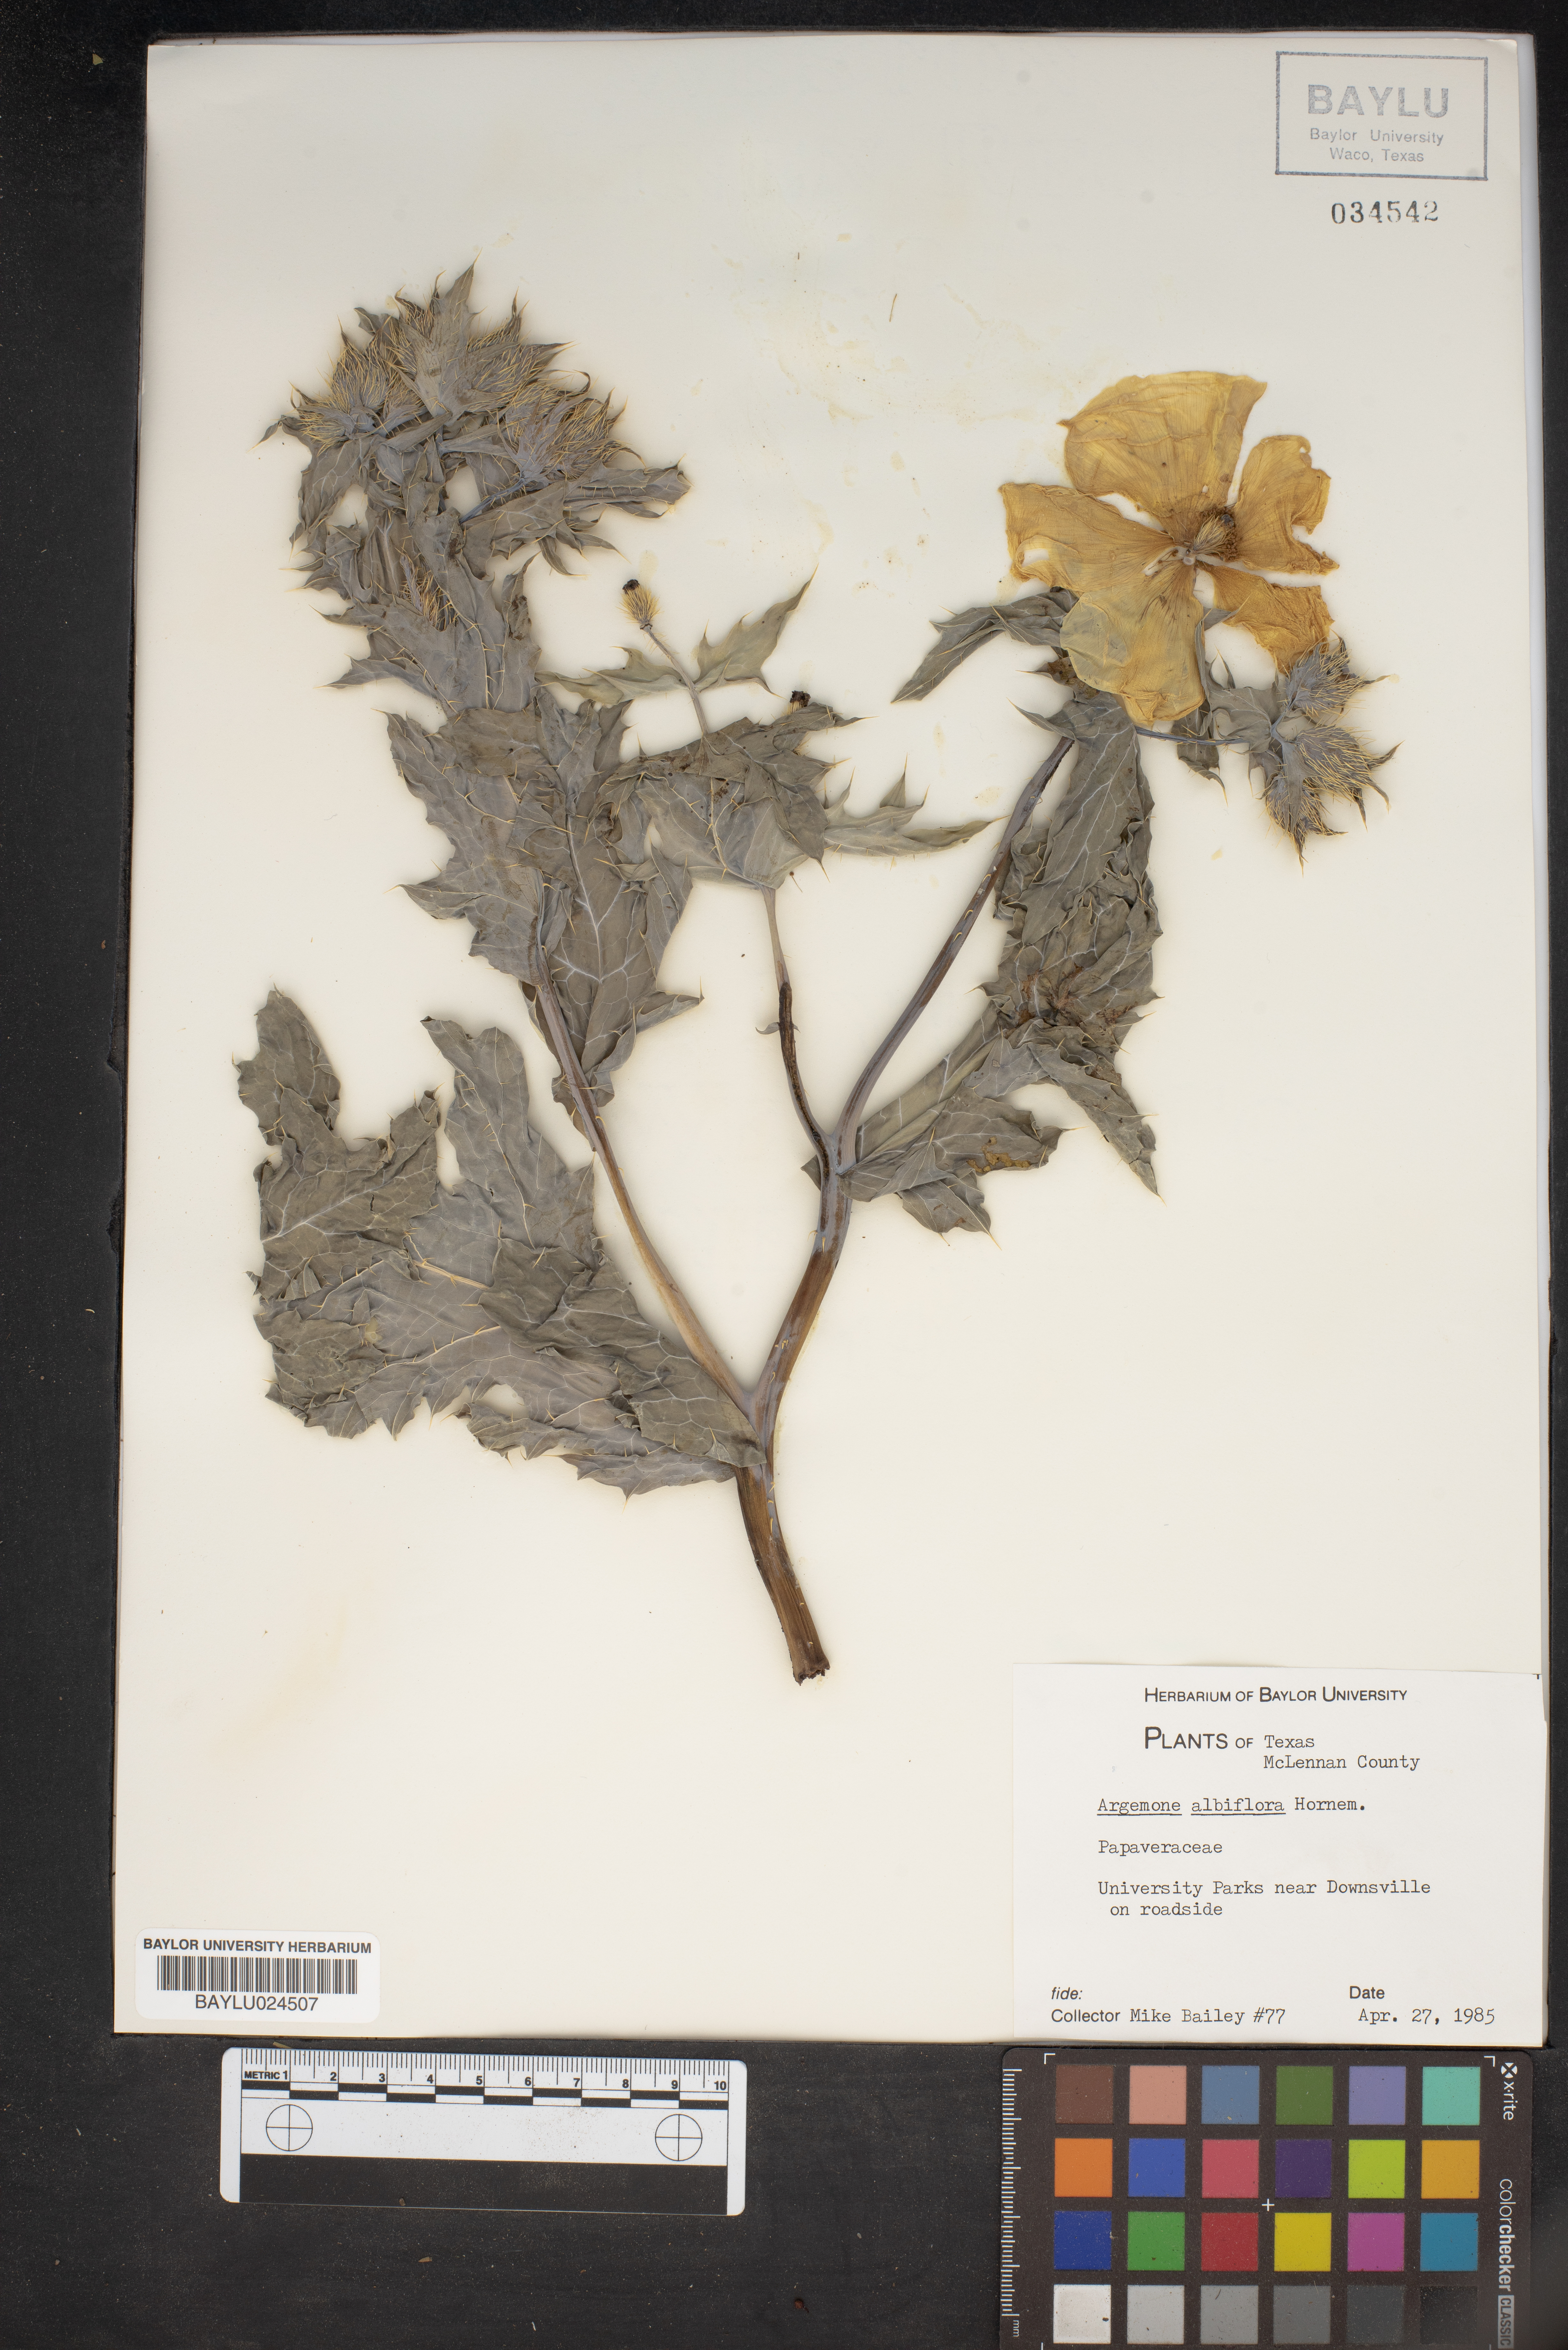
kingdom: Plantae
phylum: Tracheophyta
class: Magnoliopsida
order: Ranunculales
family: Papaveraceae
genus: Argemone
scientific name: Argemone albiflora
